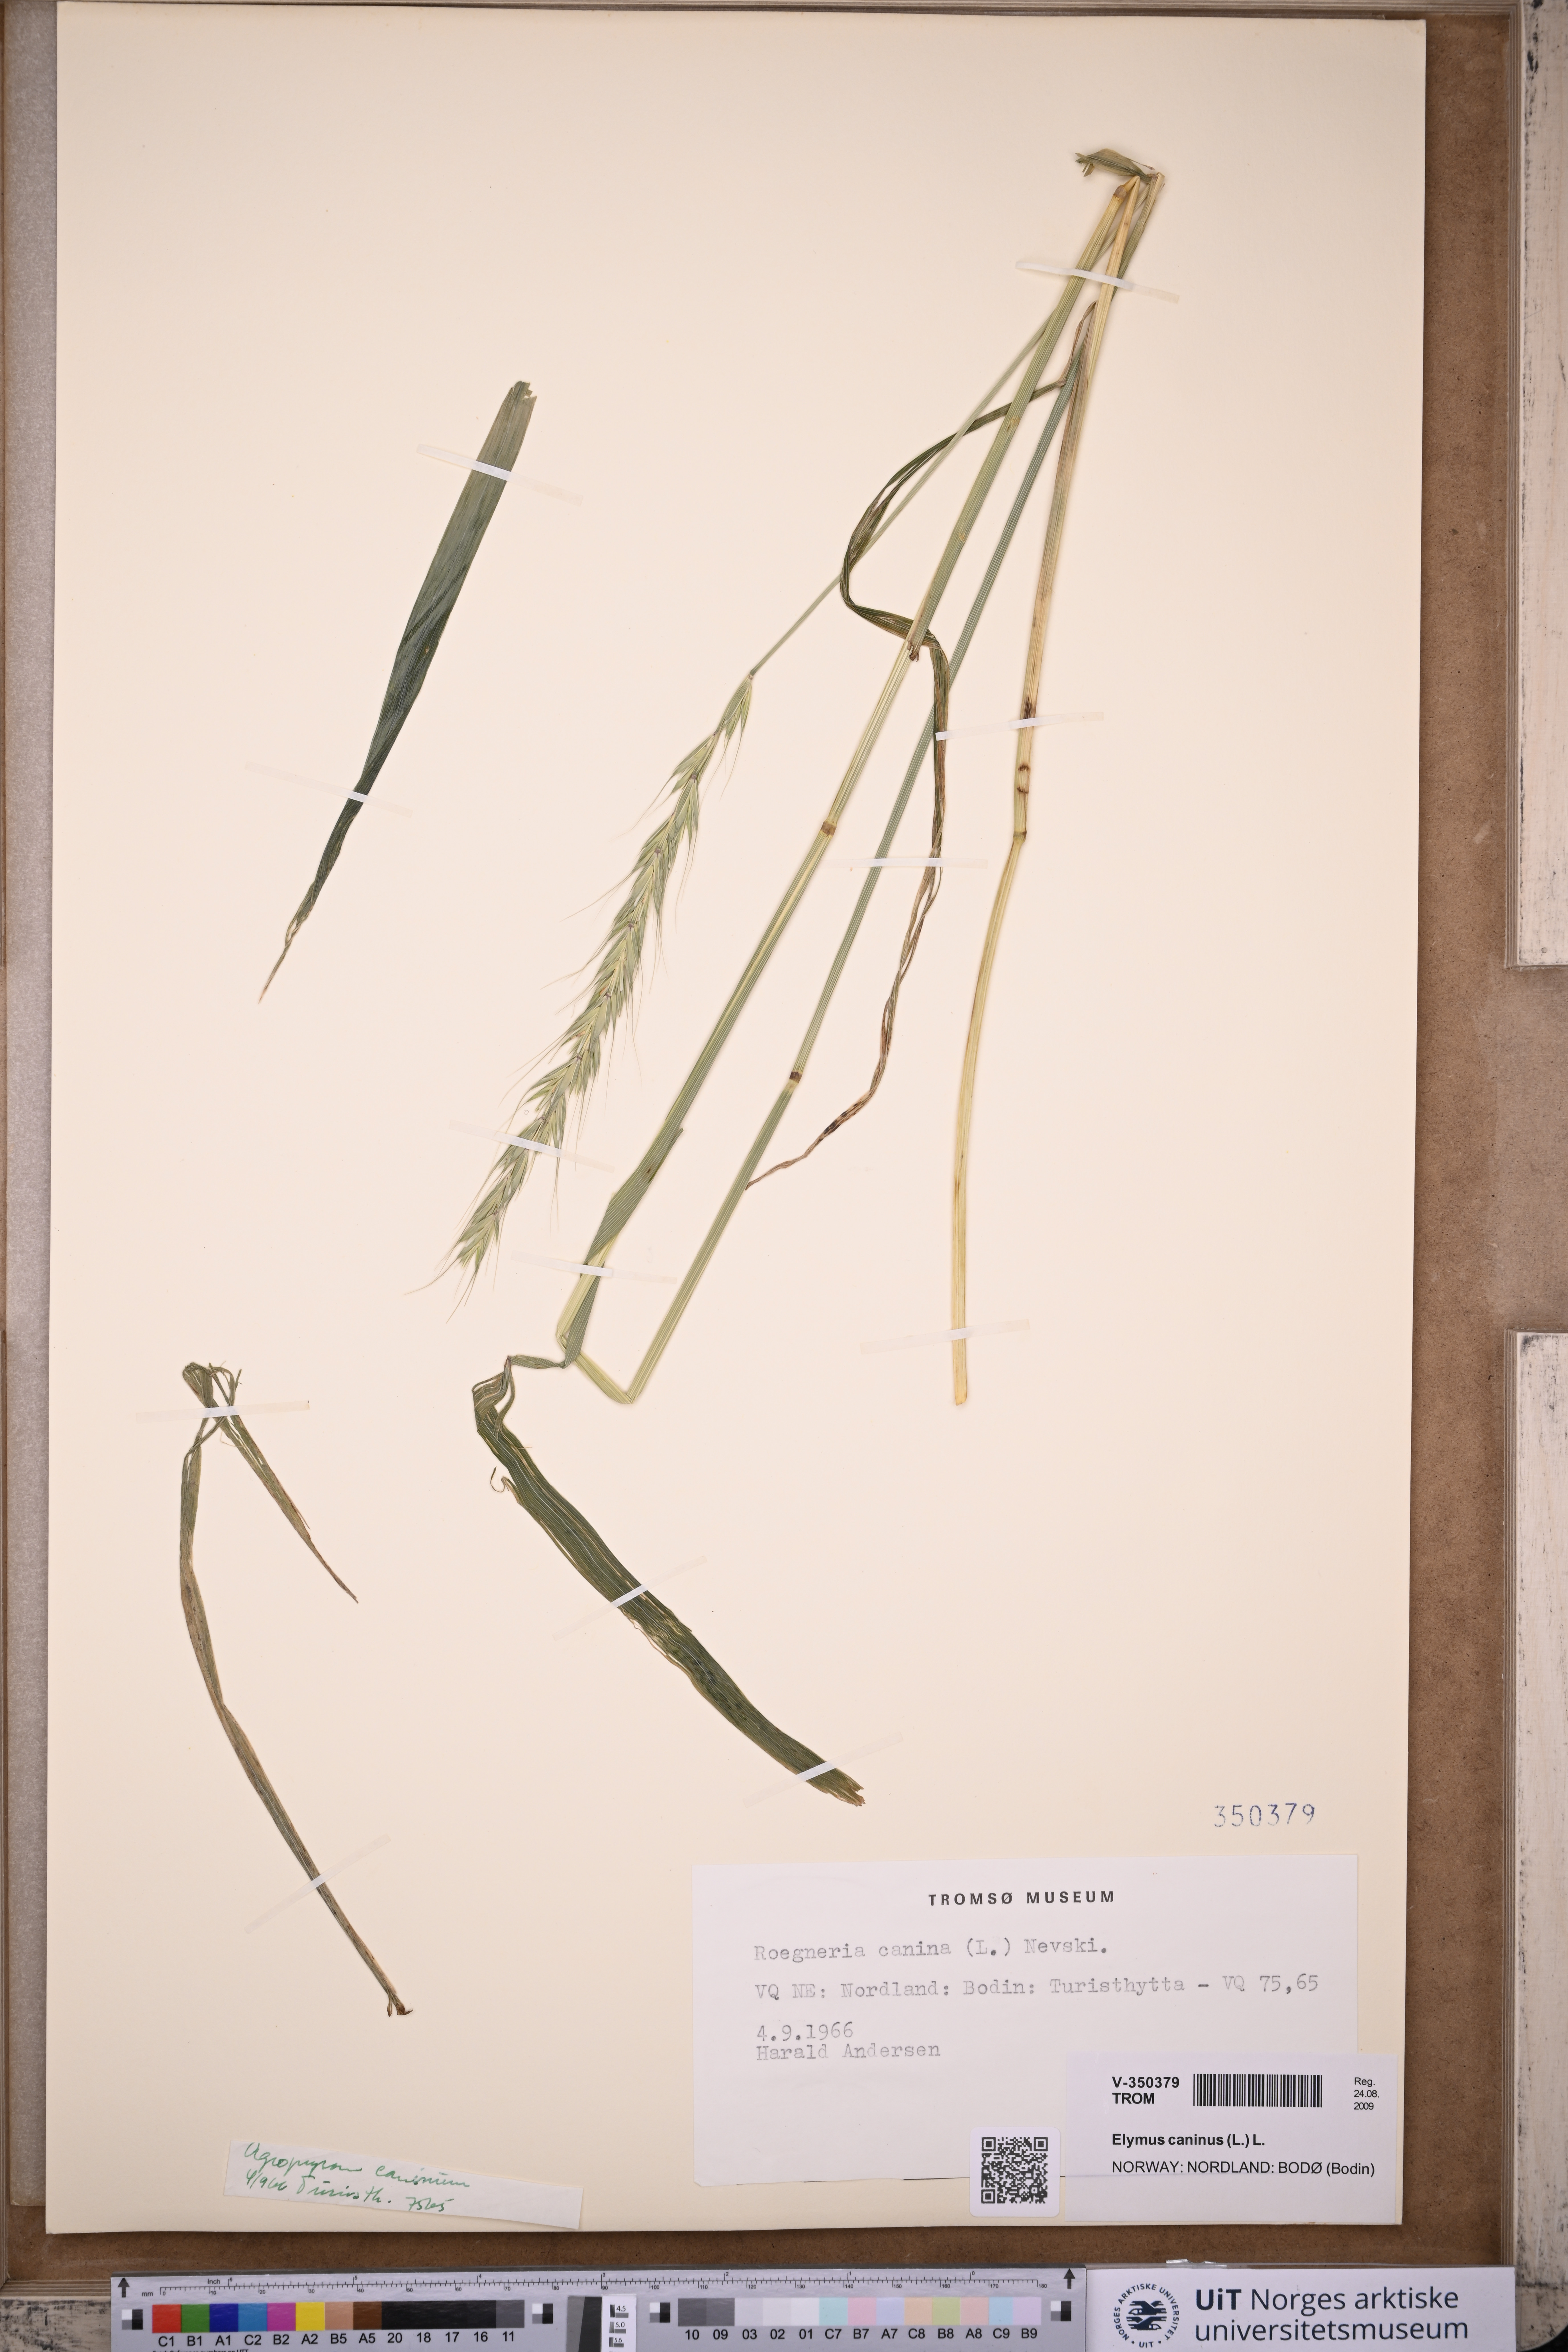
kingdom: Plantae
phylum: Tracheophyta
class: Liliopsida
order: Poales
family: Poaceae
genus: Elymus
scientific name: Elymus caninus
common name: Bearded couch
